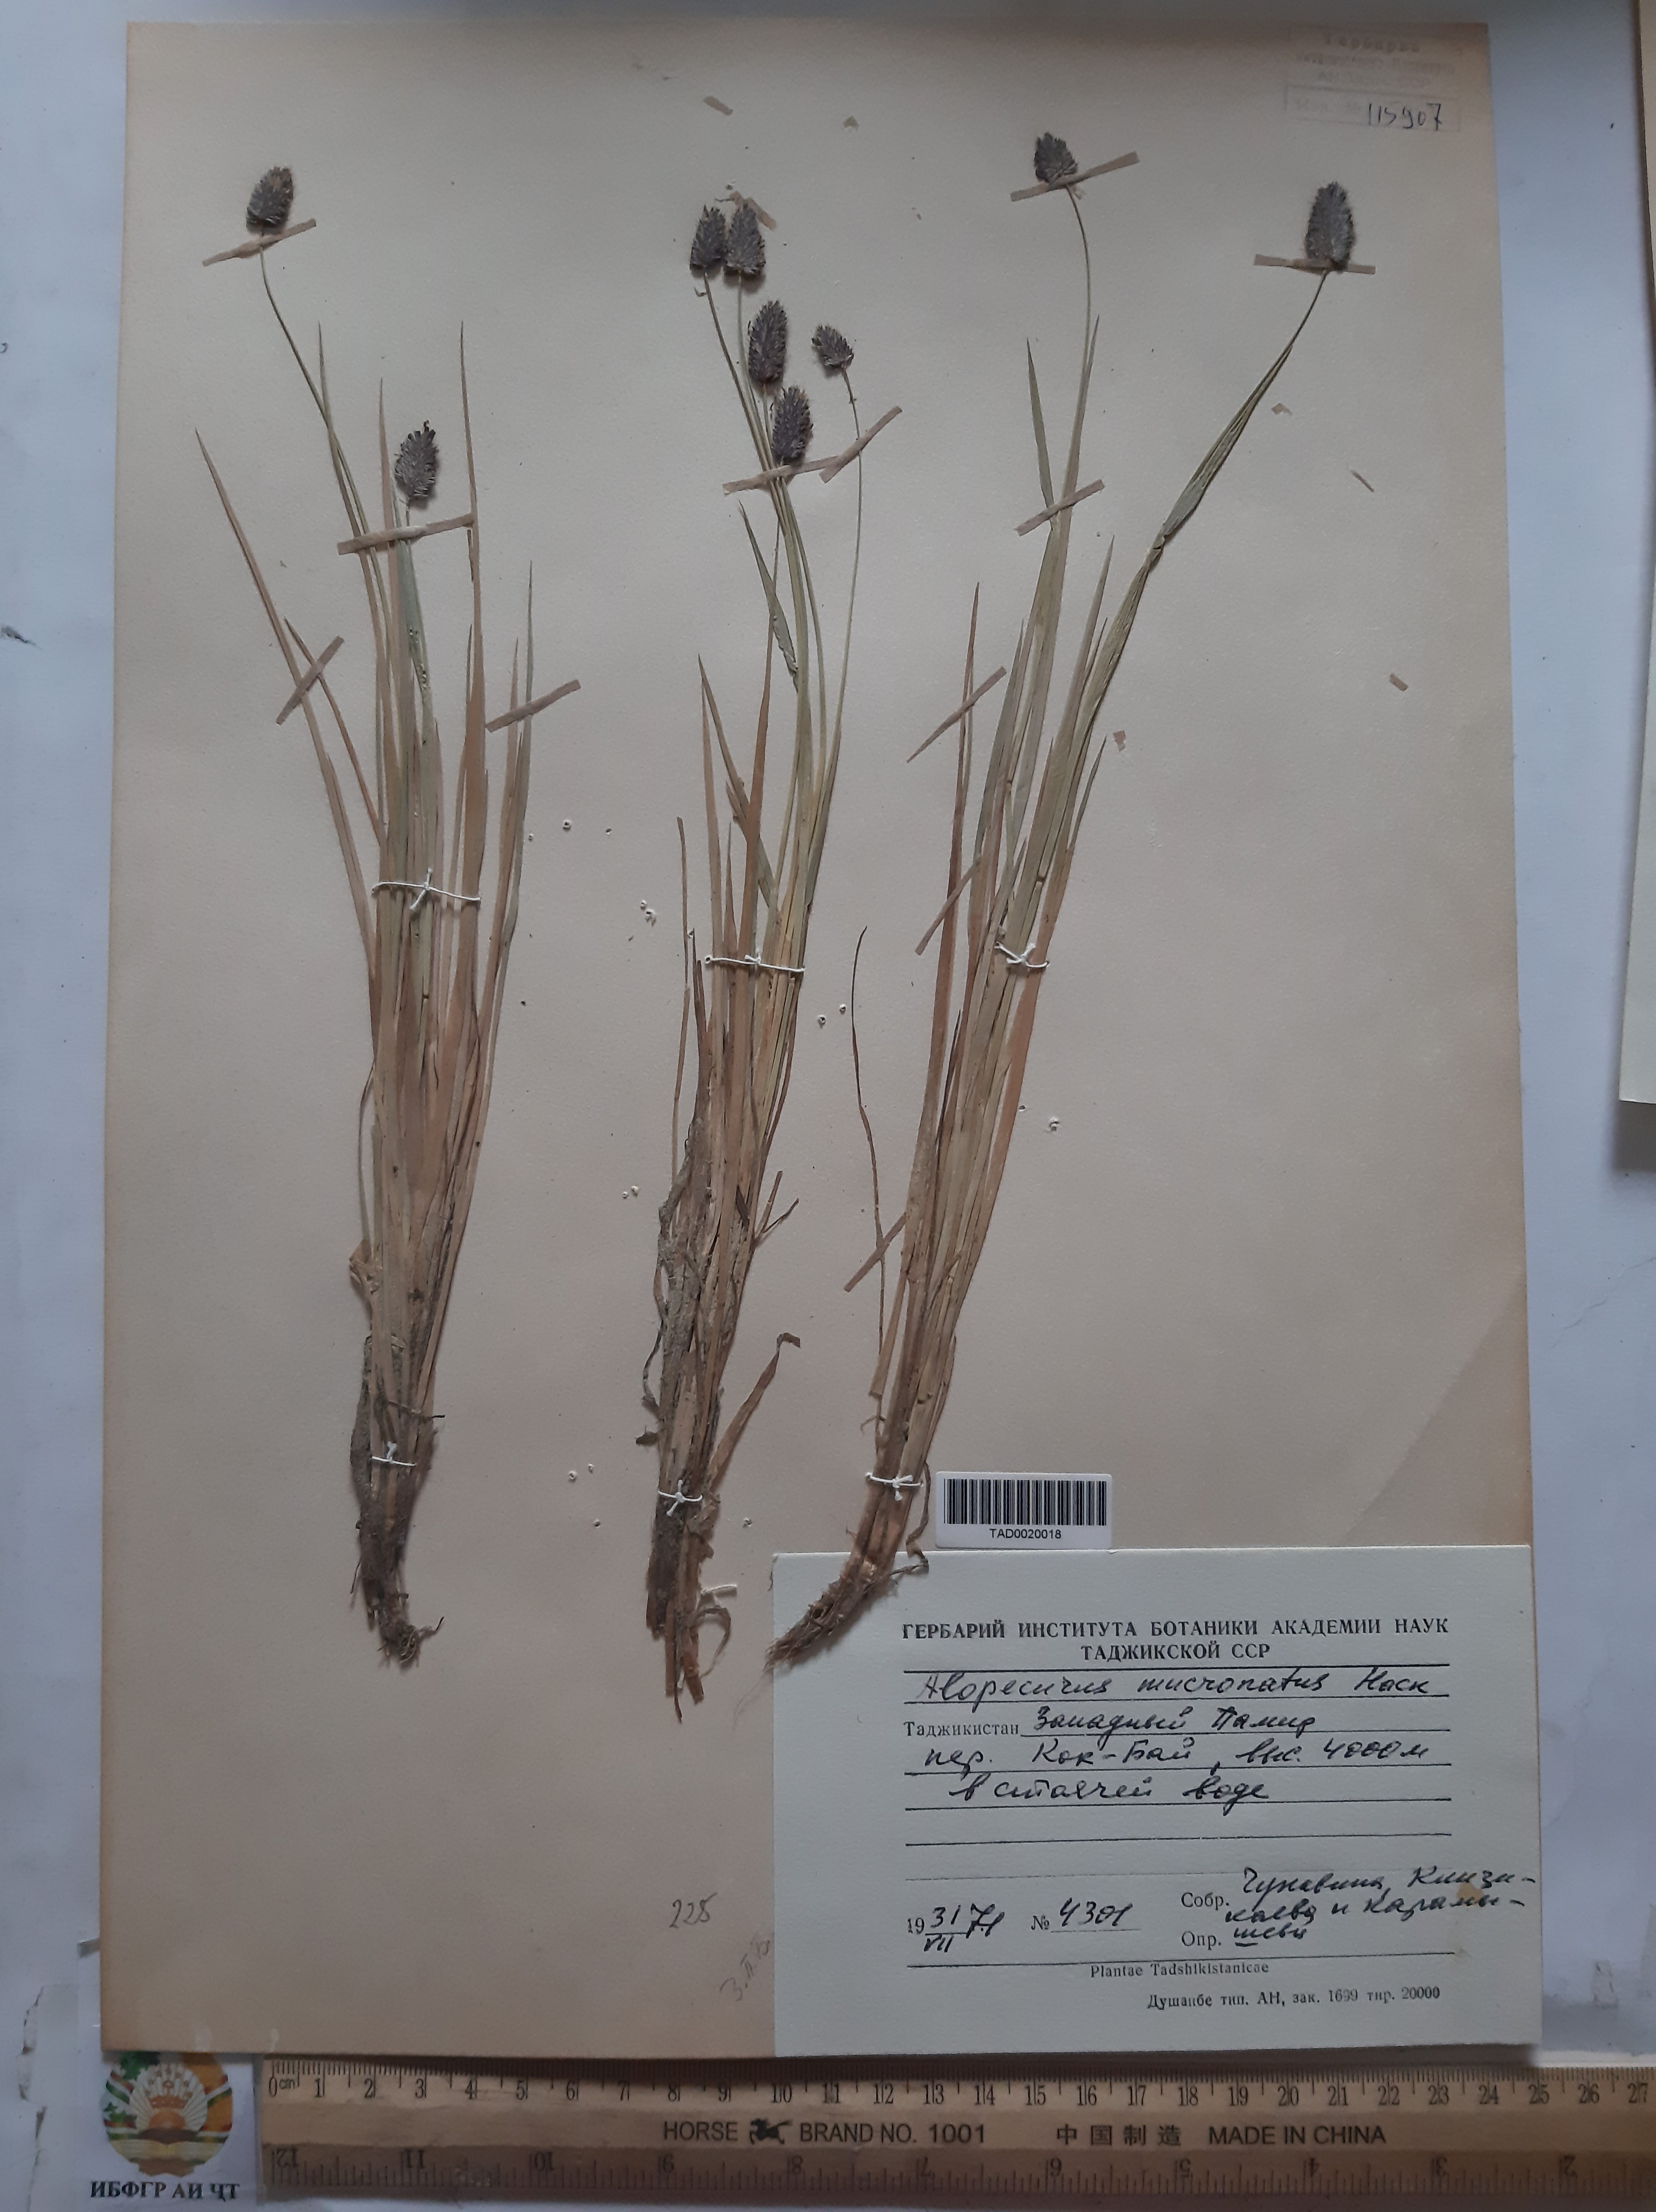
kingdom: Plantae
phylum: Tracheophyta
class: Liliopsida
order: Poales
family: Poaceae
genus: Alopecurus
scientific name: Alopecurus mucronatus
